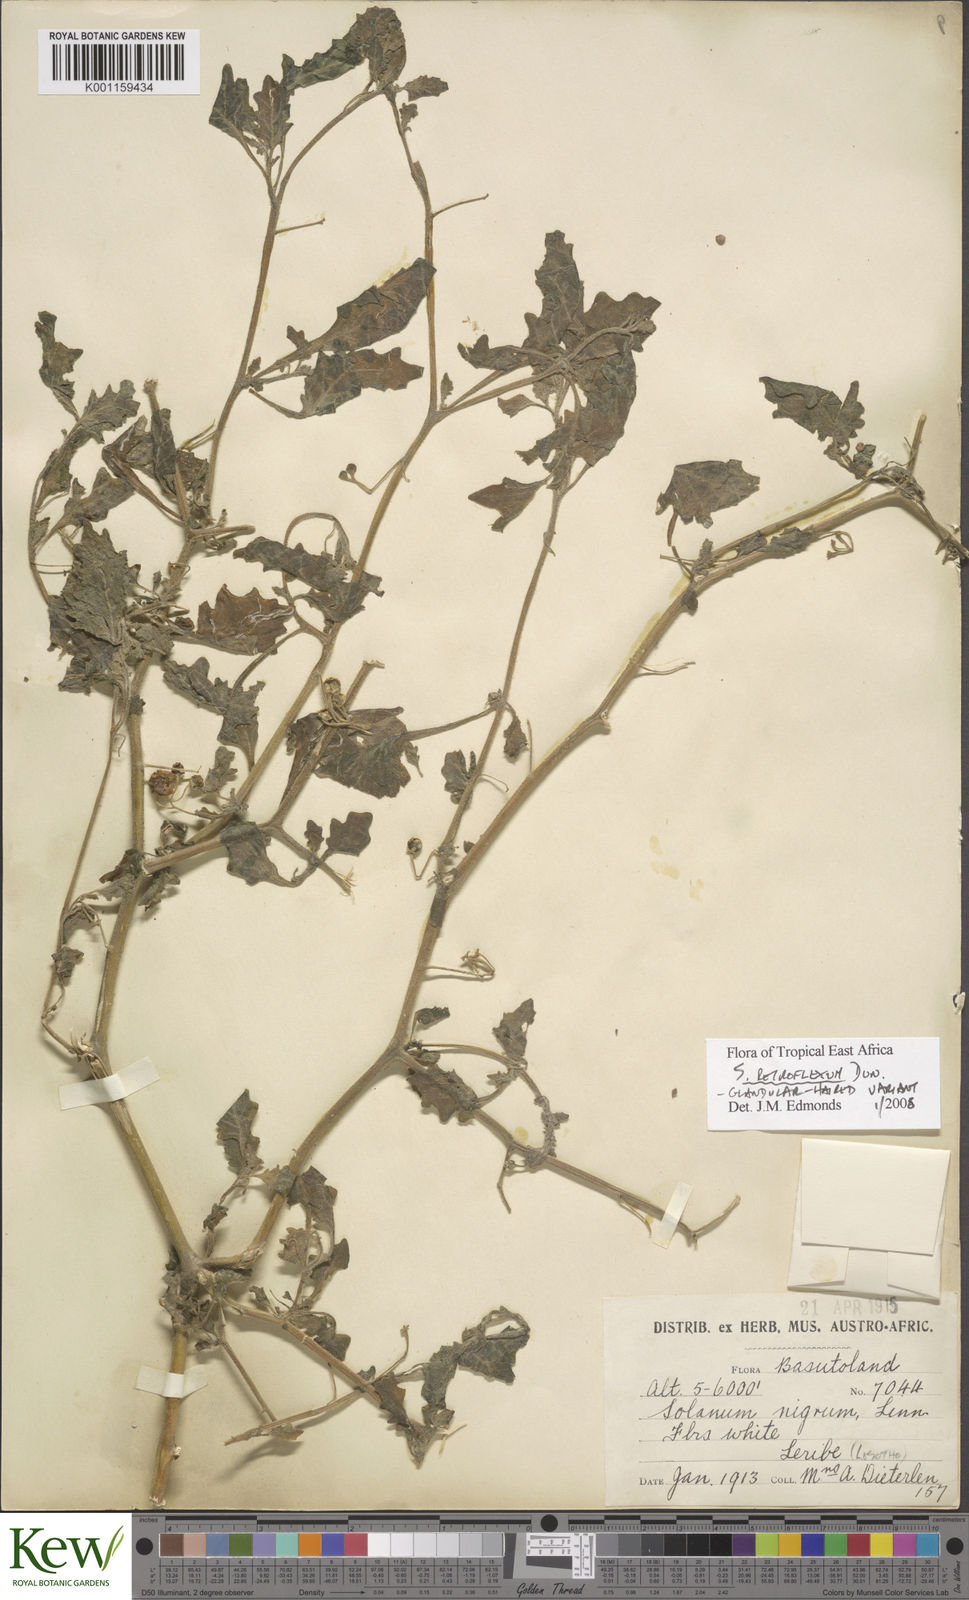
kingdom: Plantae
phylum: Tracheophyta
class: Magnoliopsida
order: Solanales
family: Solanaceae
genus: Solanum
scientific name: Solanum retroflexum
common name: Wonderberry
